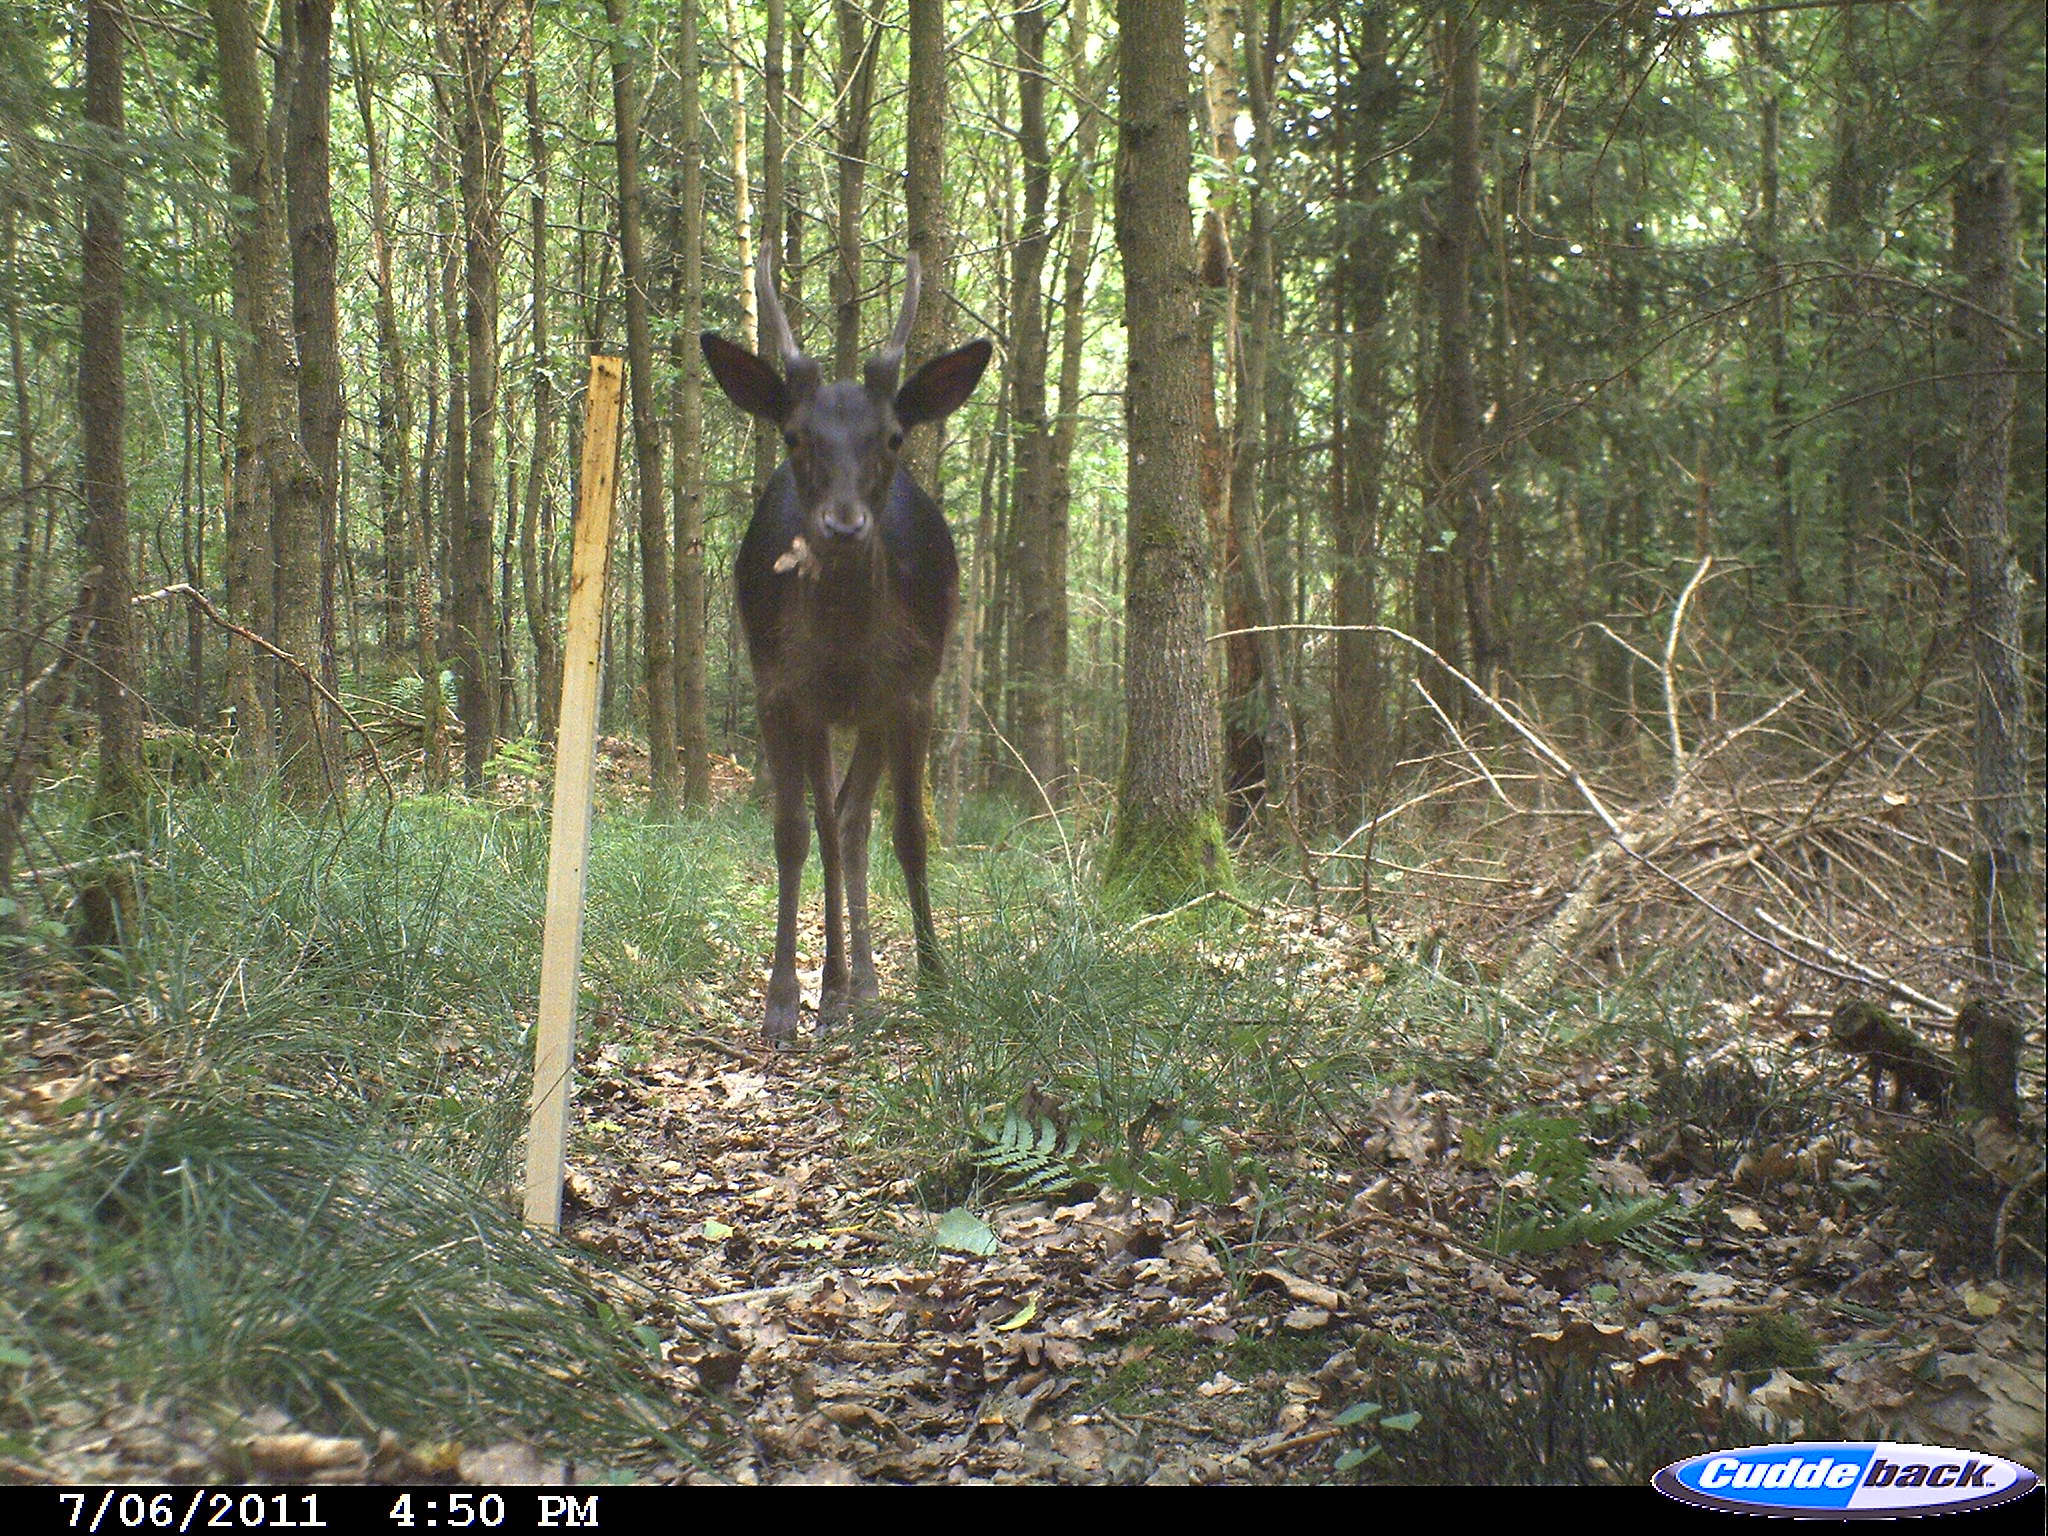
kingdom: Animalia
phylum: Chordata
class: Mammalia
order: Artiodactyla
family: Cervidae
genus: Cervus
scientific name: Cervus
